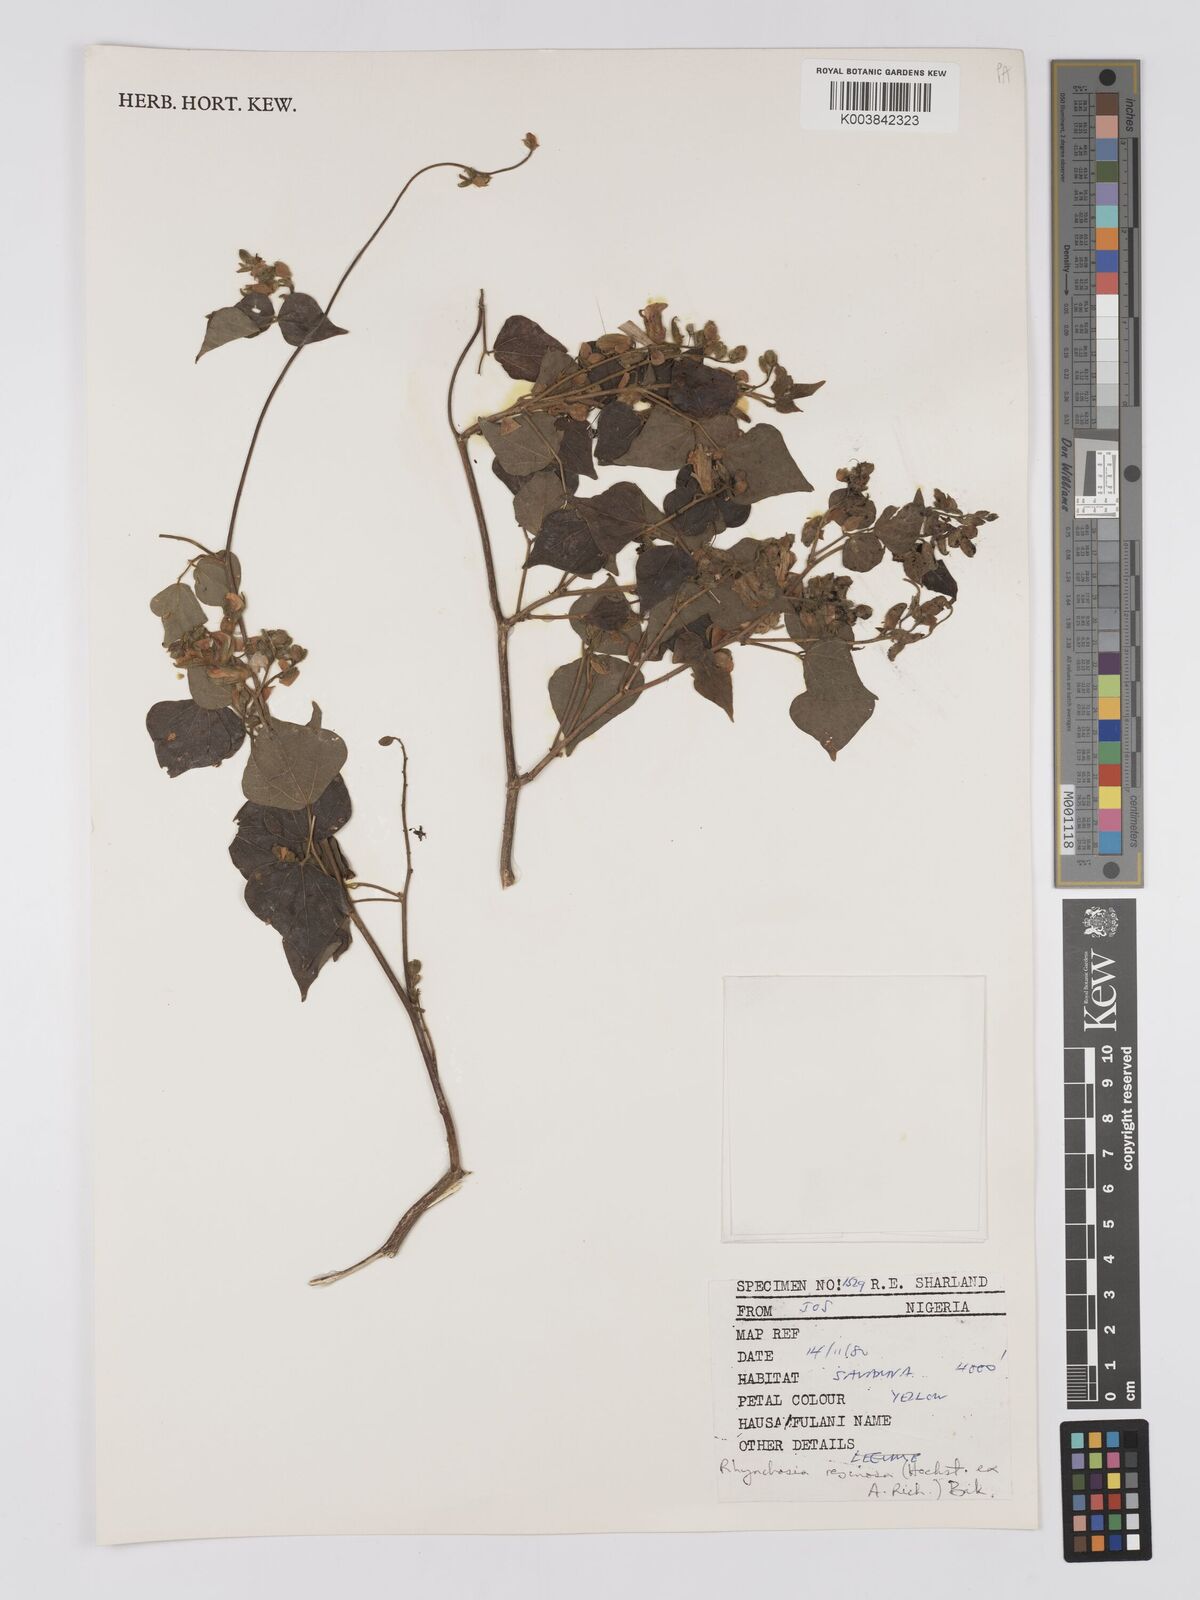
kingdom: Plantae
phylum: Tracheophyta
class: Magnoliopsida
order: Fabales
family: Fabaceae
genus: Rhynchosia
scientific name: Rhynchosia resinosa
